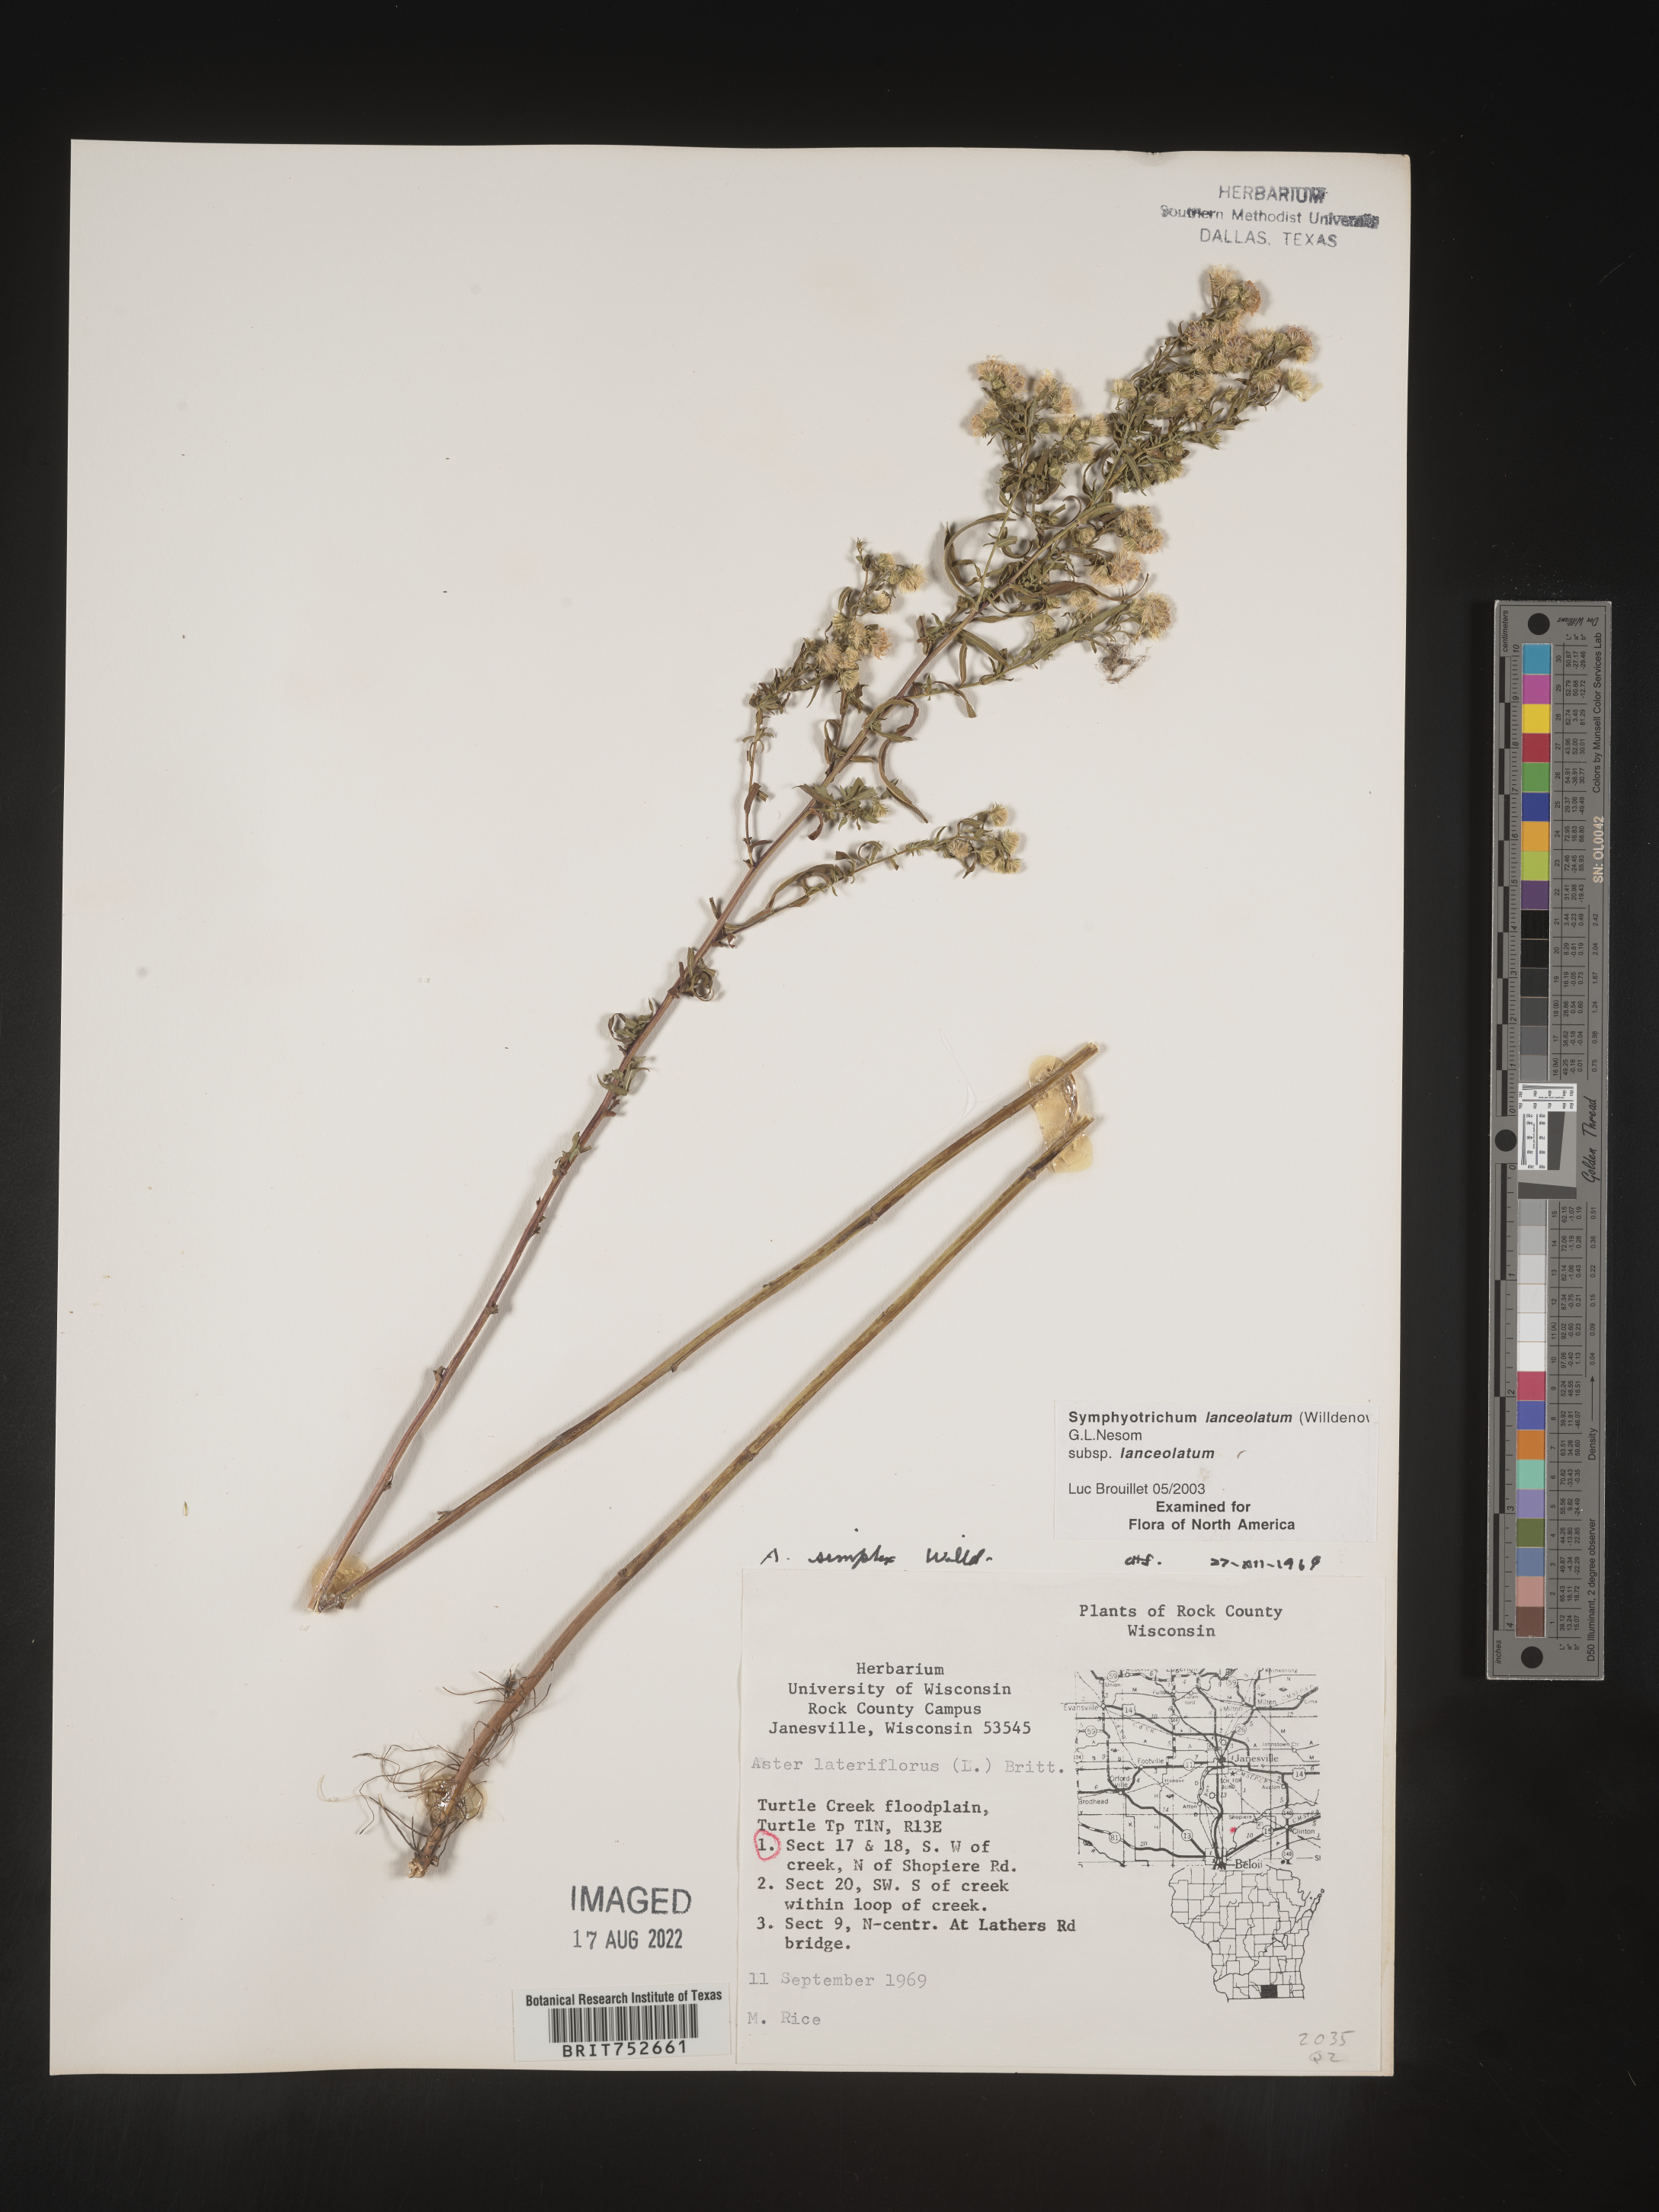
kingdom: Plantae
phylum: Tracheophyta
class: Magnoliopsida
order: Asterales
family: Asteraceae
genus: Symphyotrichum
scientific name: Symphyotrichum lanceolatum
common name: Panicled aster
